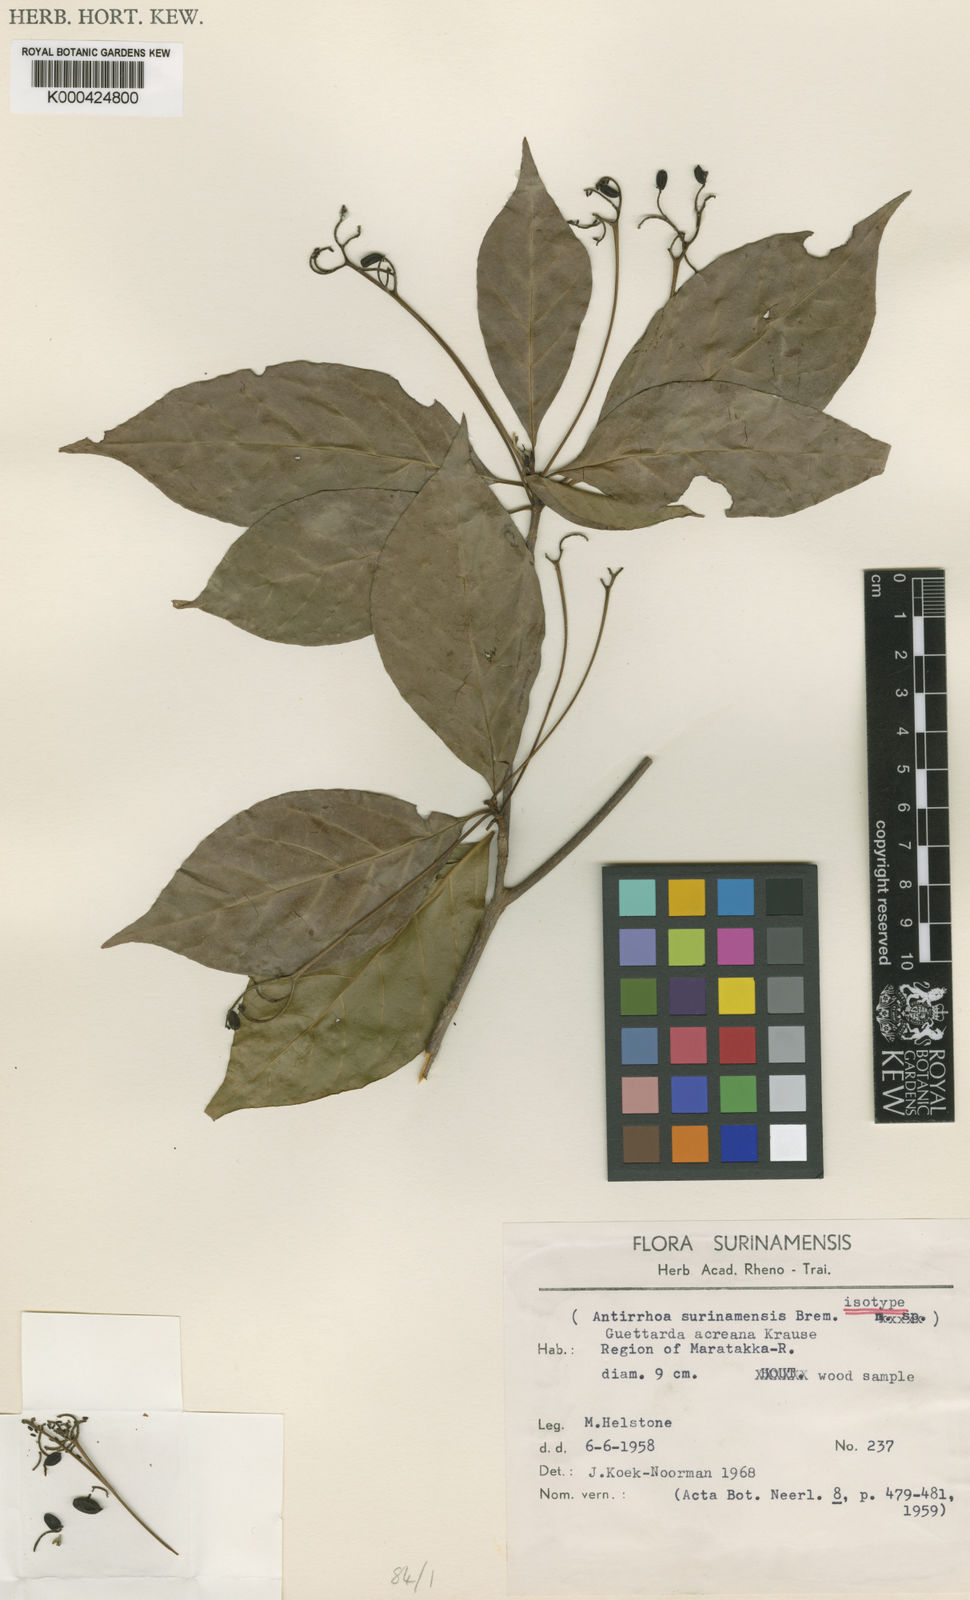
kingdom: Plantae
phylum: Tracheophyta
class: Magnoliopsida
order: Gentianales
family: Rubiaceae
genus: Stenostomum
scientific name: Stenostomum
